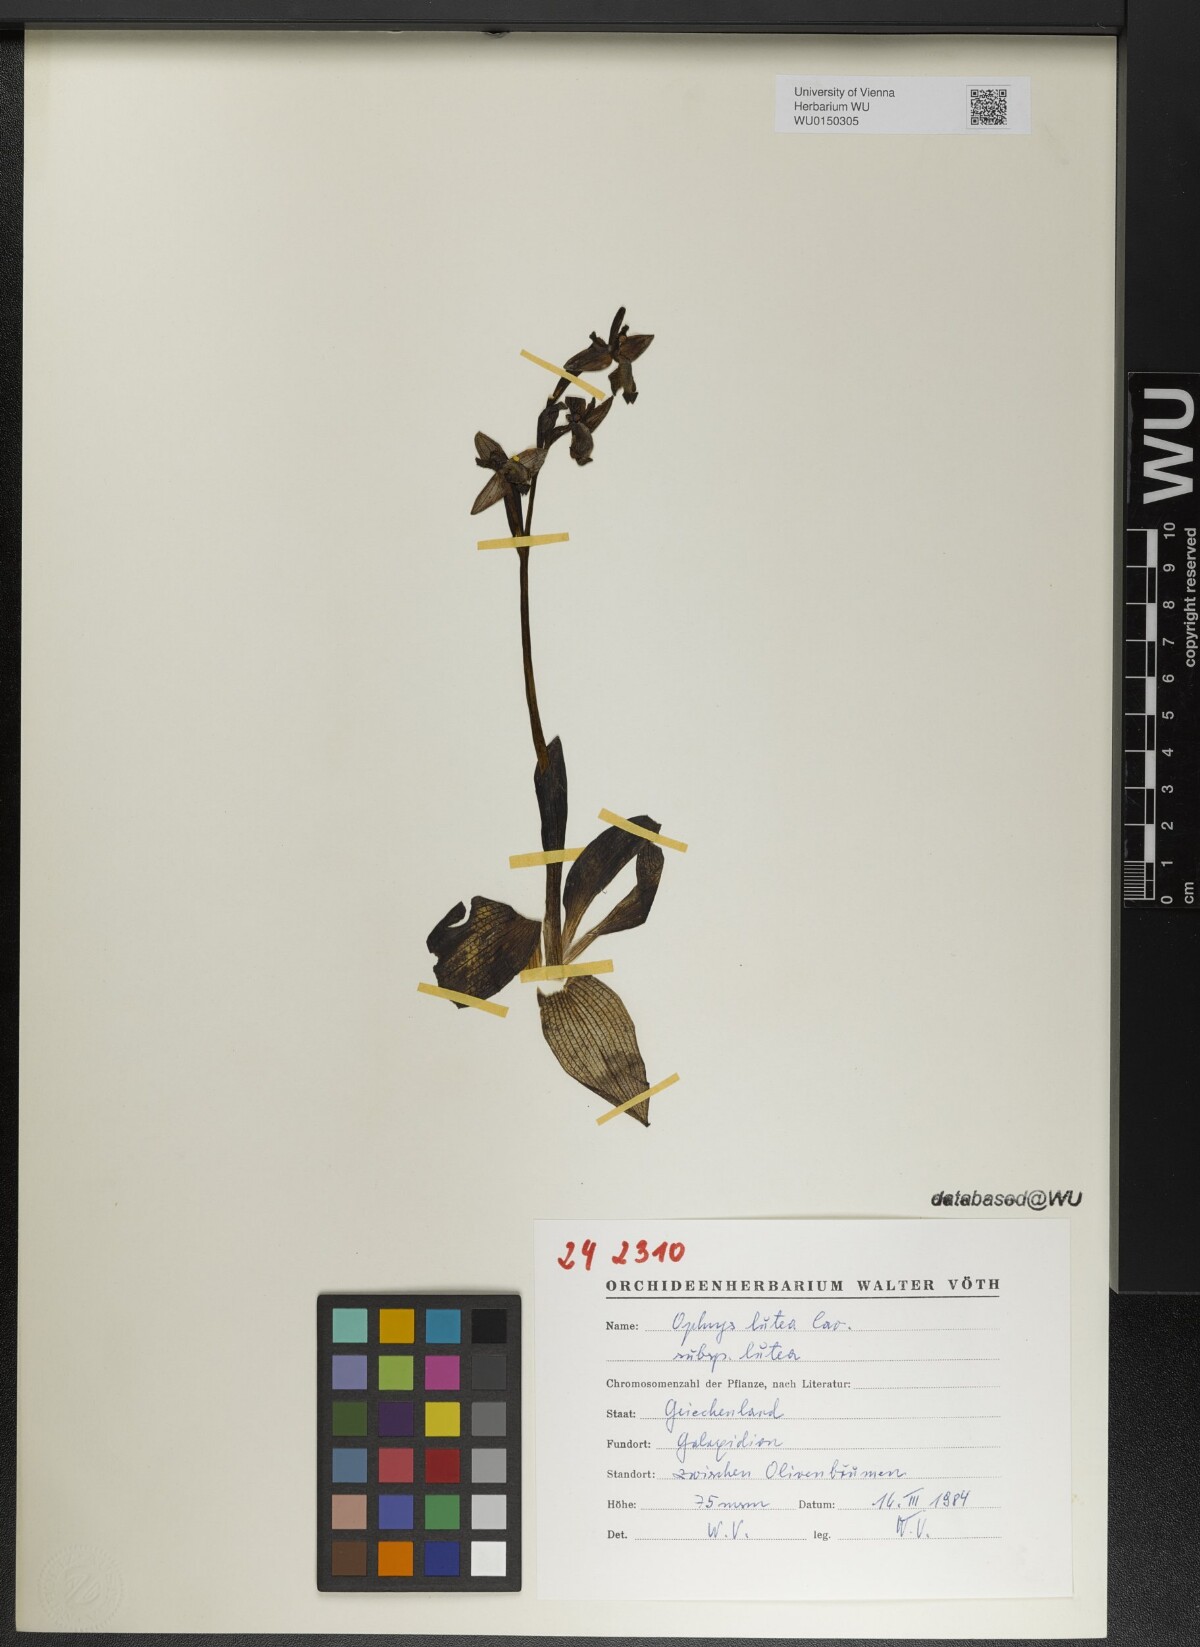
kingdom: Plantae
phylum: Tracheophyta
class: Liliopsida
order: Asparagales
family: Orchidaceae
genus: Ophrys
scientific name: Ophrys lutea
